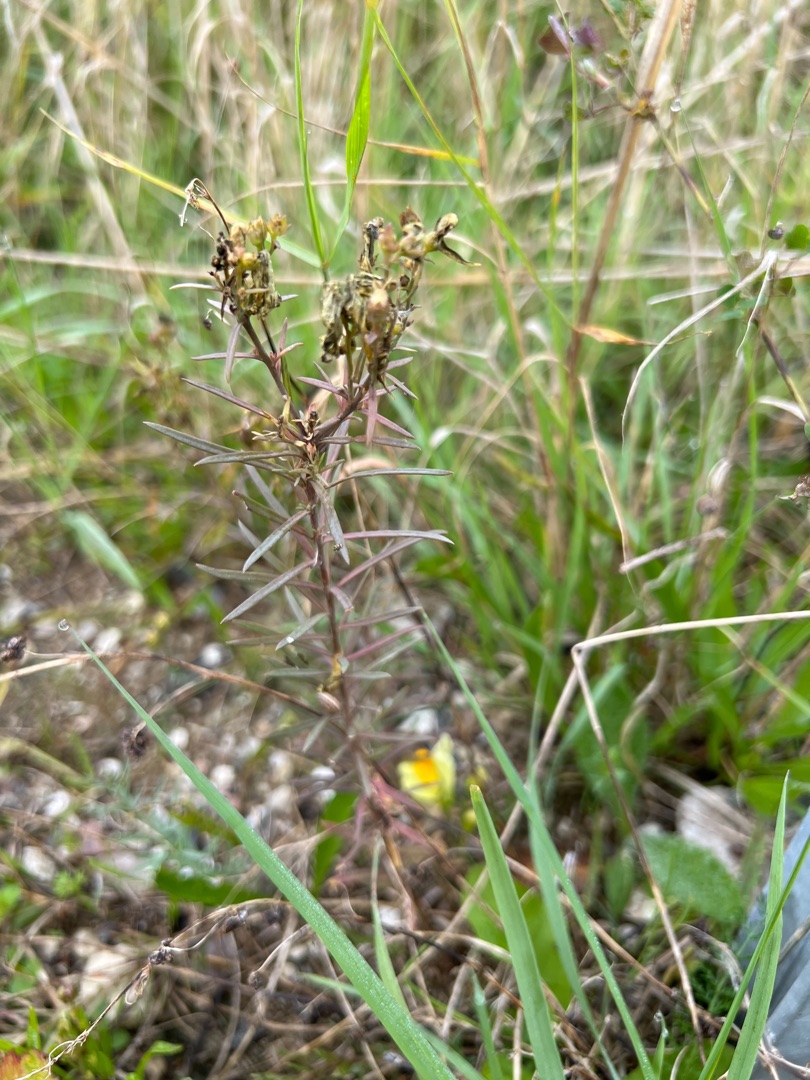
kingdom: Plantae
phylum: Tracheophyta
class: Magnoliopsida
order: Lamiales
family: Plantaginaceae
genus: Linaria
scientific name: Linaria vulgaris
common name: Almindelig torskemund
